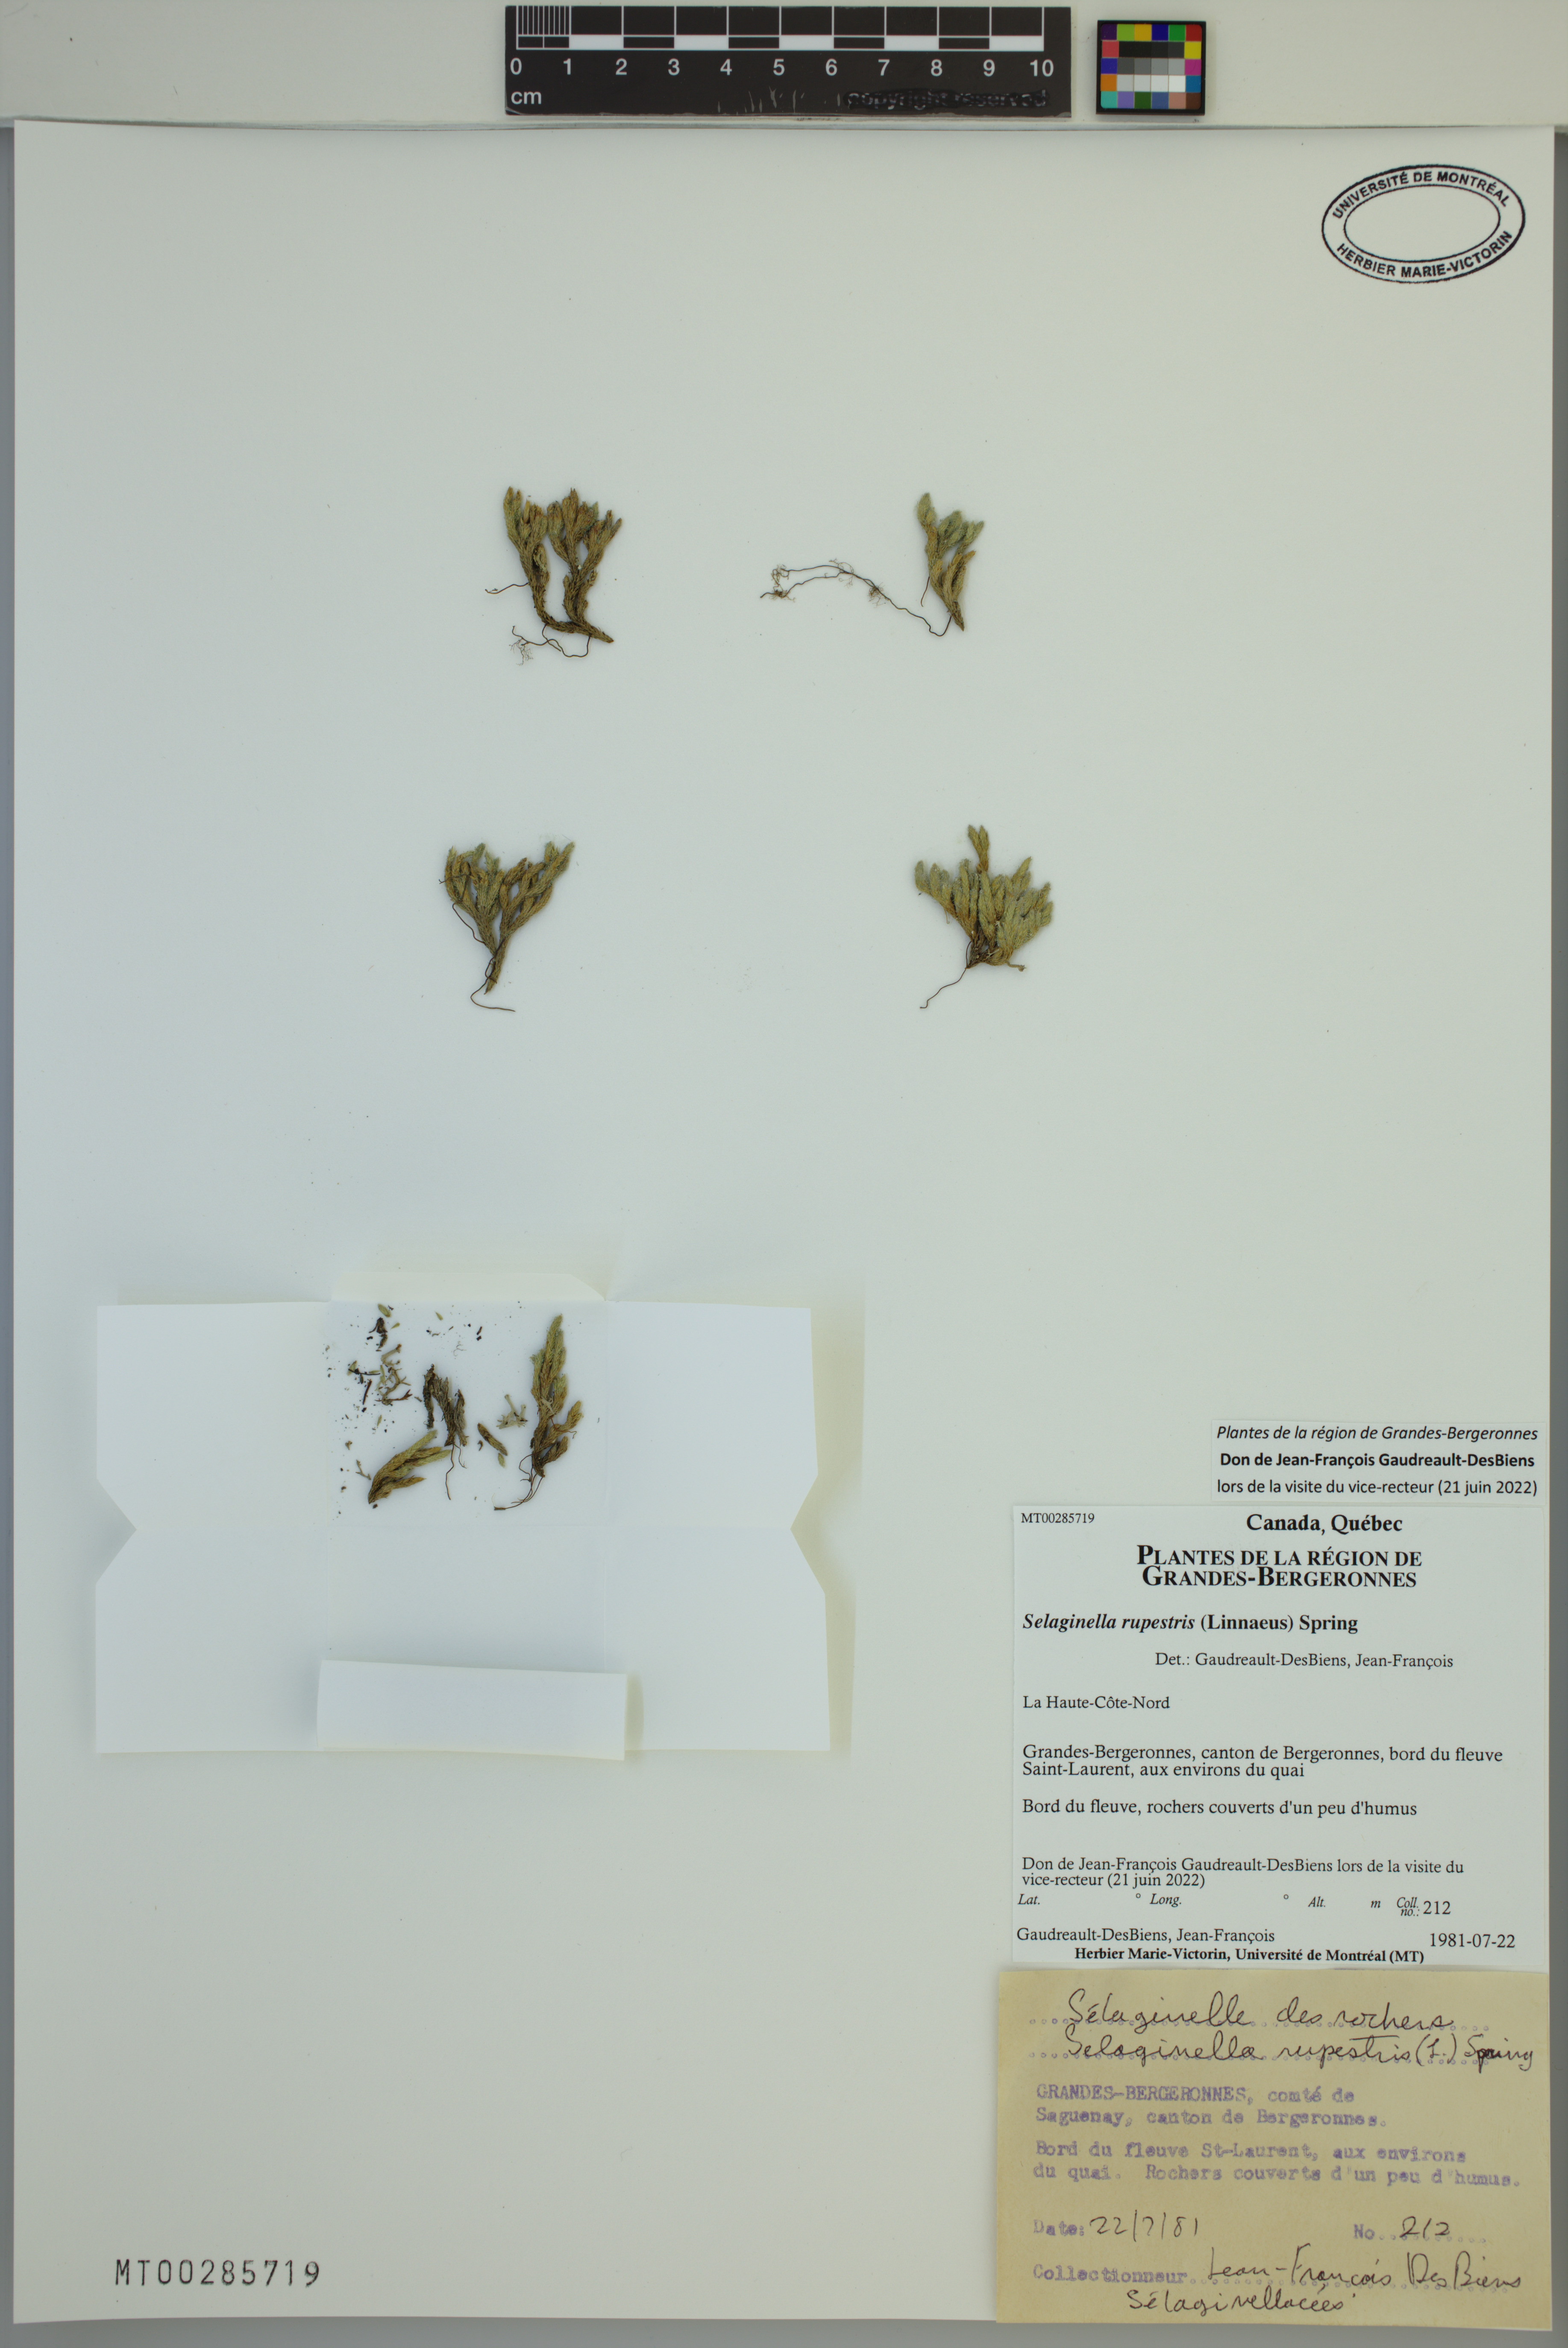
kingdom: Plantae
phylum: Tracheophyta
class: Lycopodiopsida
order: Selaginellales
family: Selaginellaceae
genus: Selaginella
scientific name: Selaginella rupestris
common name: Dwarf spikemoss
